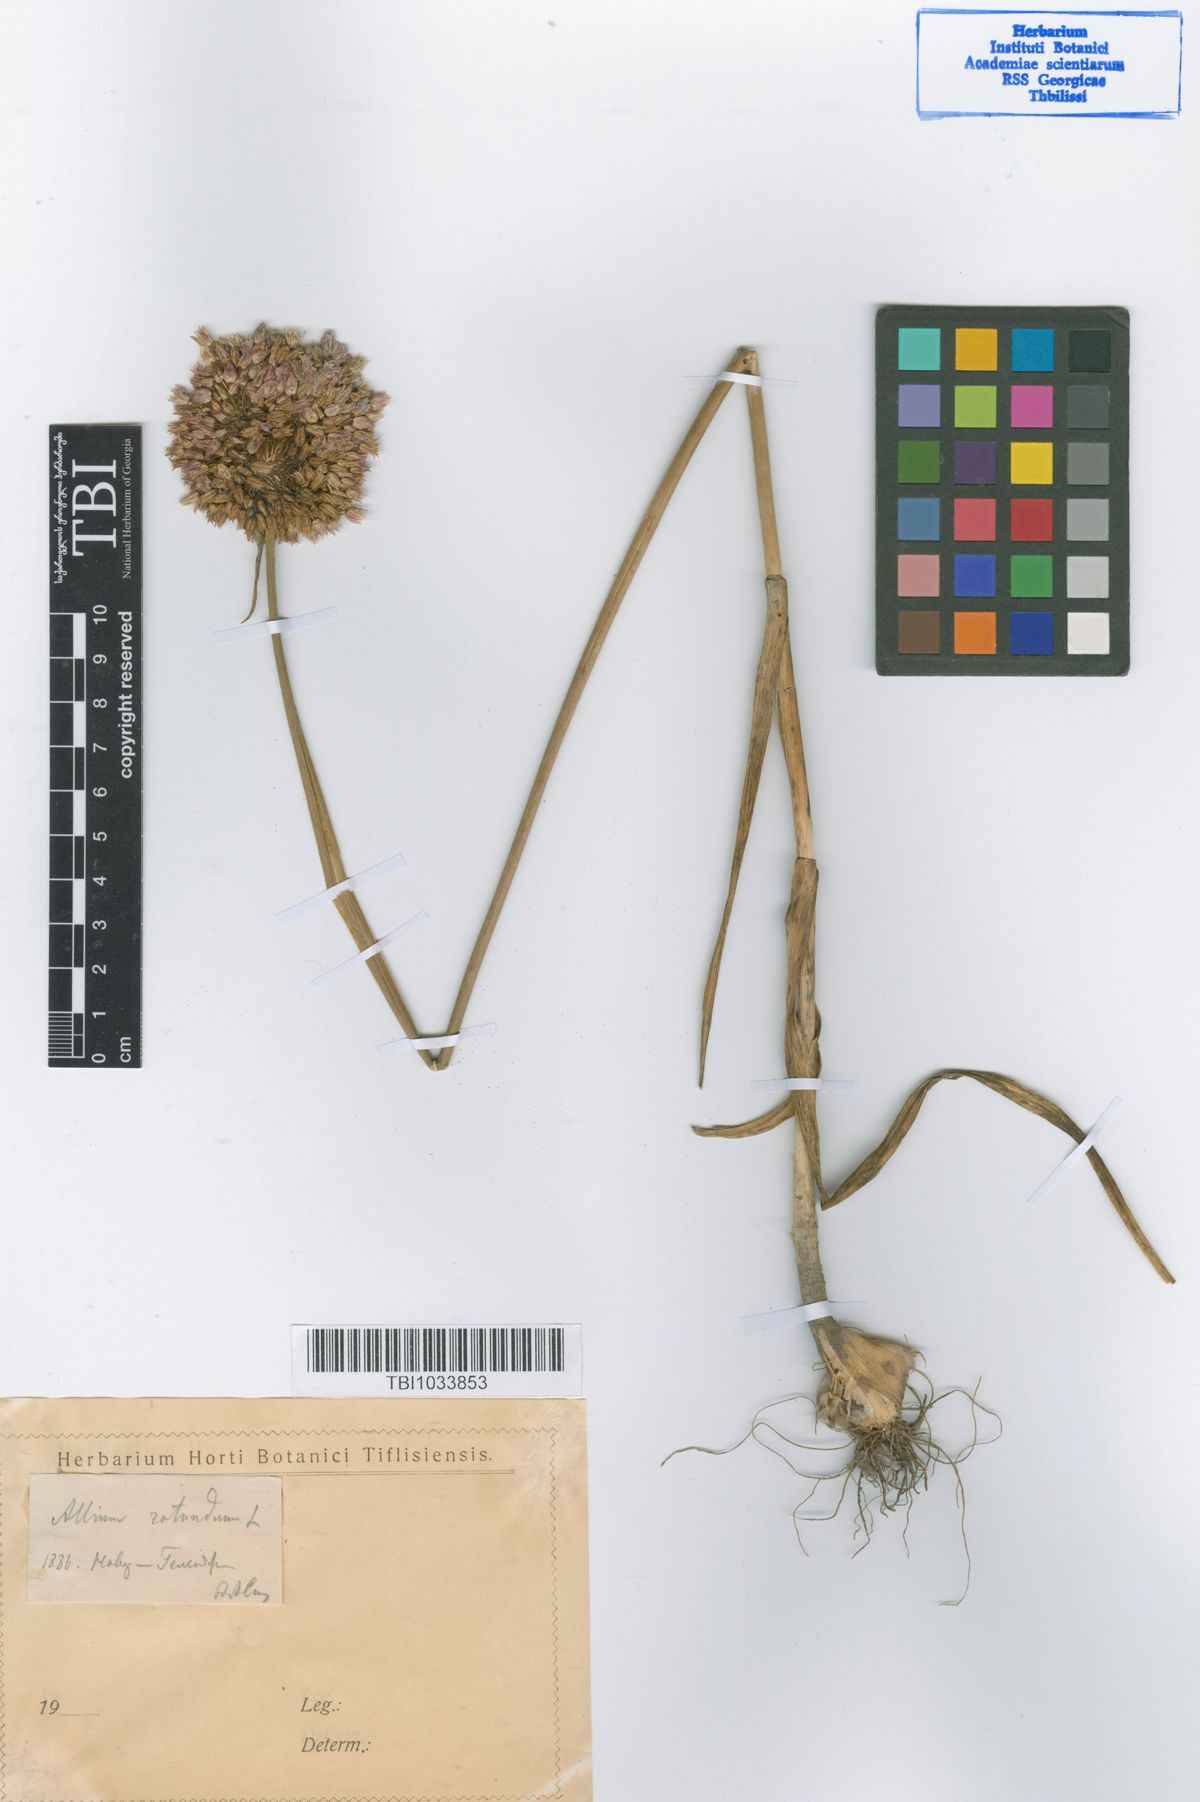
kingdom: Plantae
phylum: Tracheophyta
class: Liliopsida
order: Asparagales
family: Amaryllidaceae
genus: Allium
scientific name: Allium rotundum
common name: Sand leek
